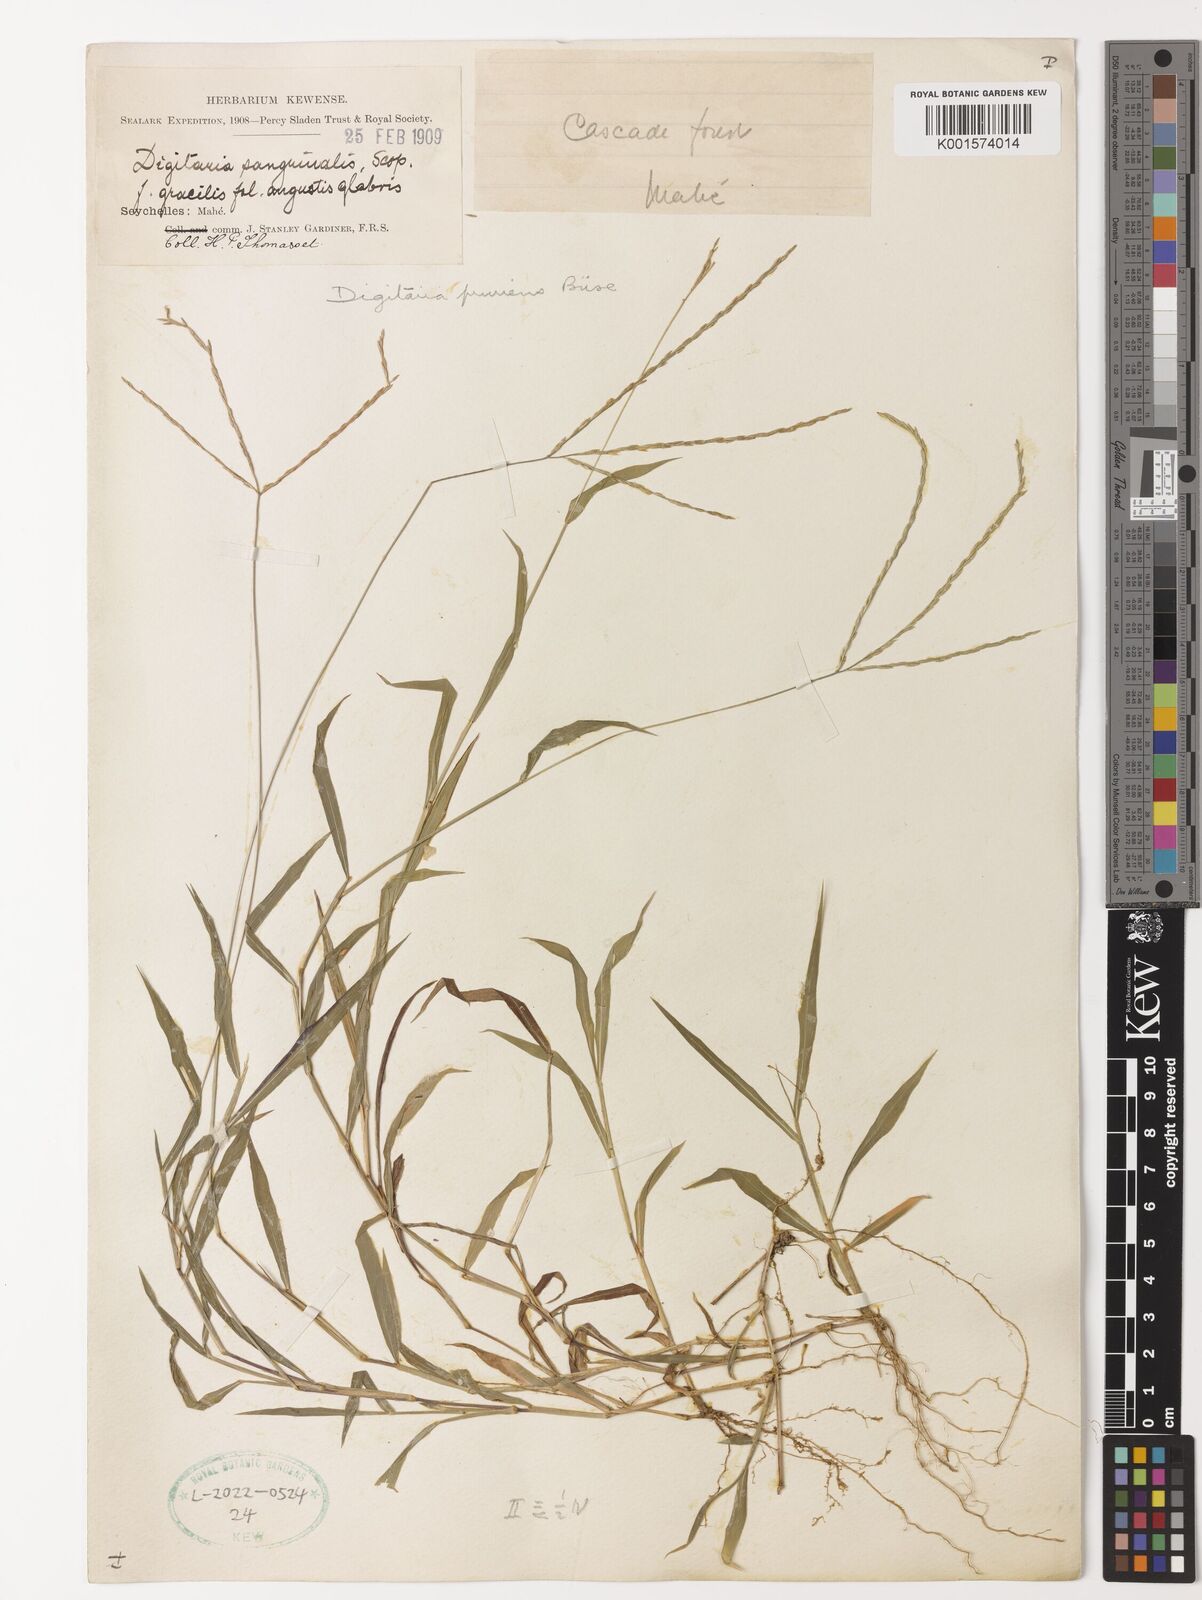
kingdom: Plantae
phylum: Tracheophyta
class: Liliopsida
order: Poales
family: Poaceae
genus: Digitaria
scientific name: Digitaria radicosa
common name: Trailing crabgrass
